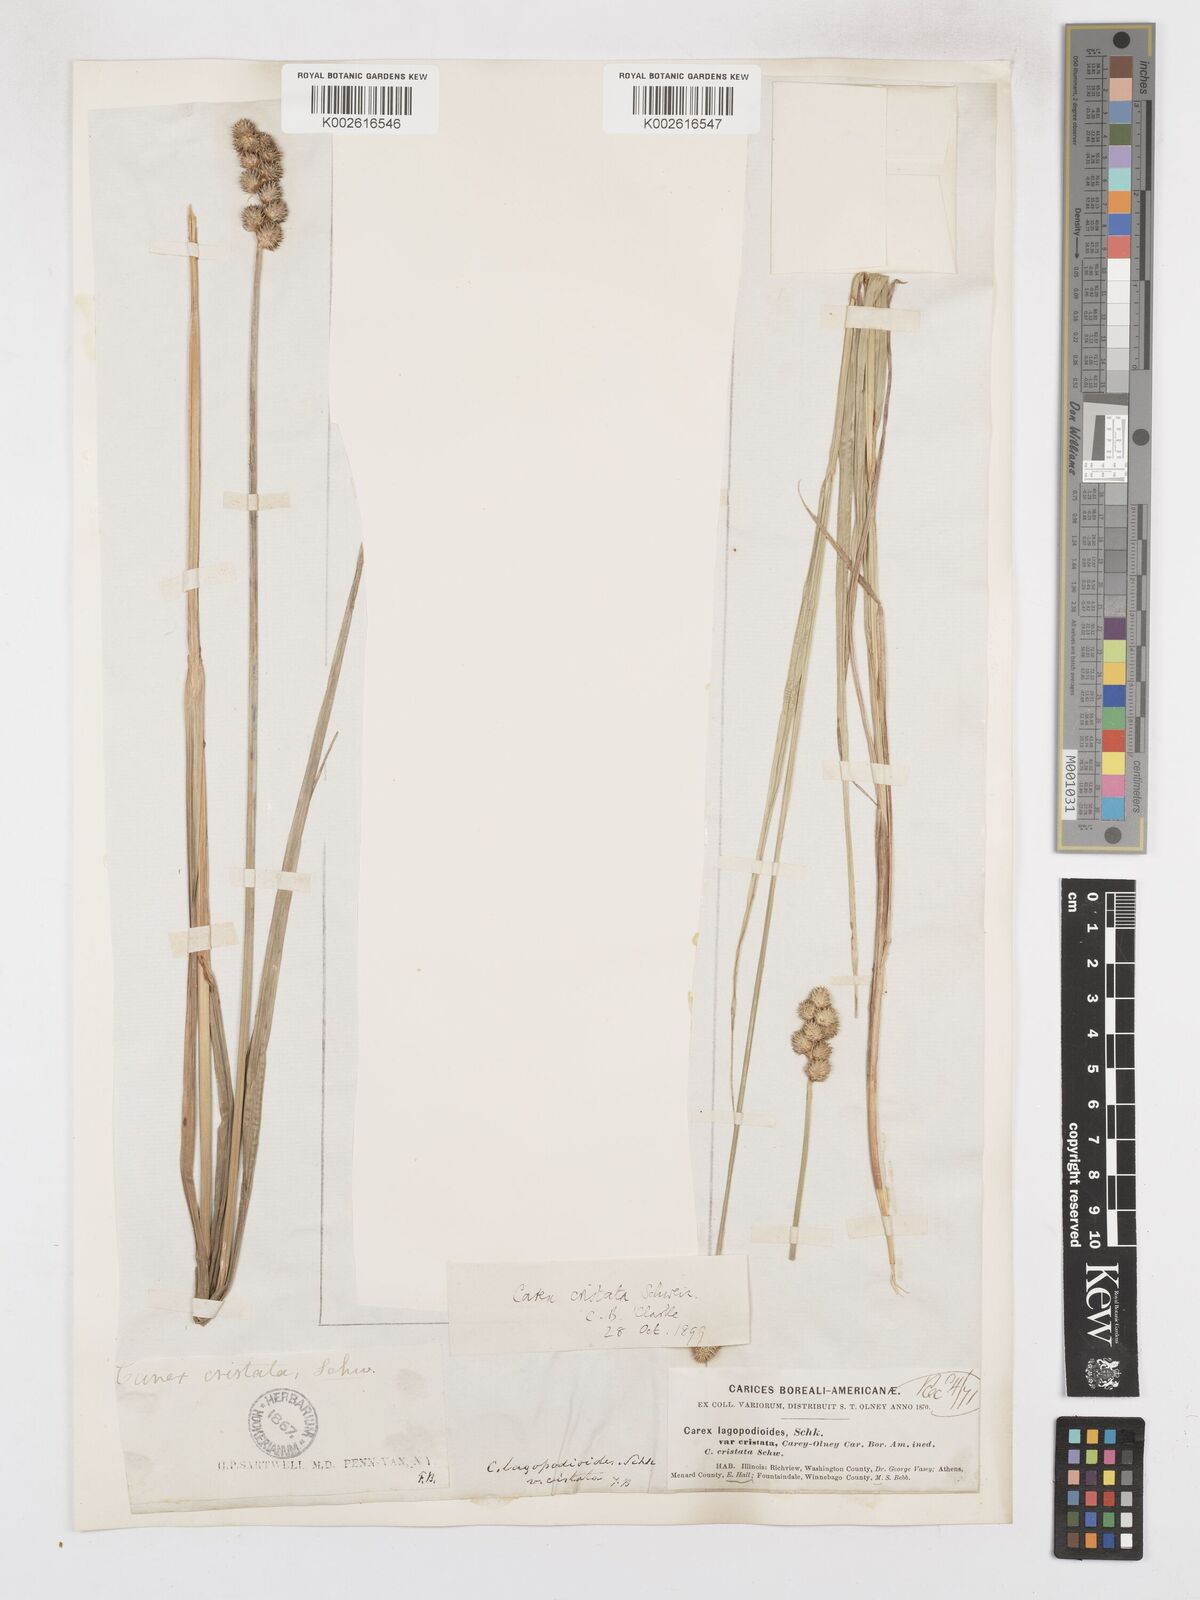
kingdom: Plantae
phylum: Tracheophyta
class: Liliopsida
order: Poales
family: Cyperaceae
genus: Carex
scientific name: Carex cristatella
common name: Crested oval sedge
